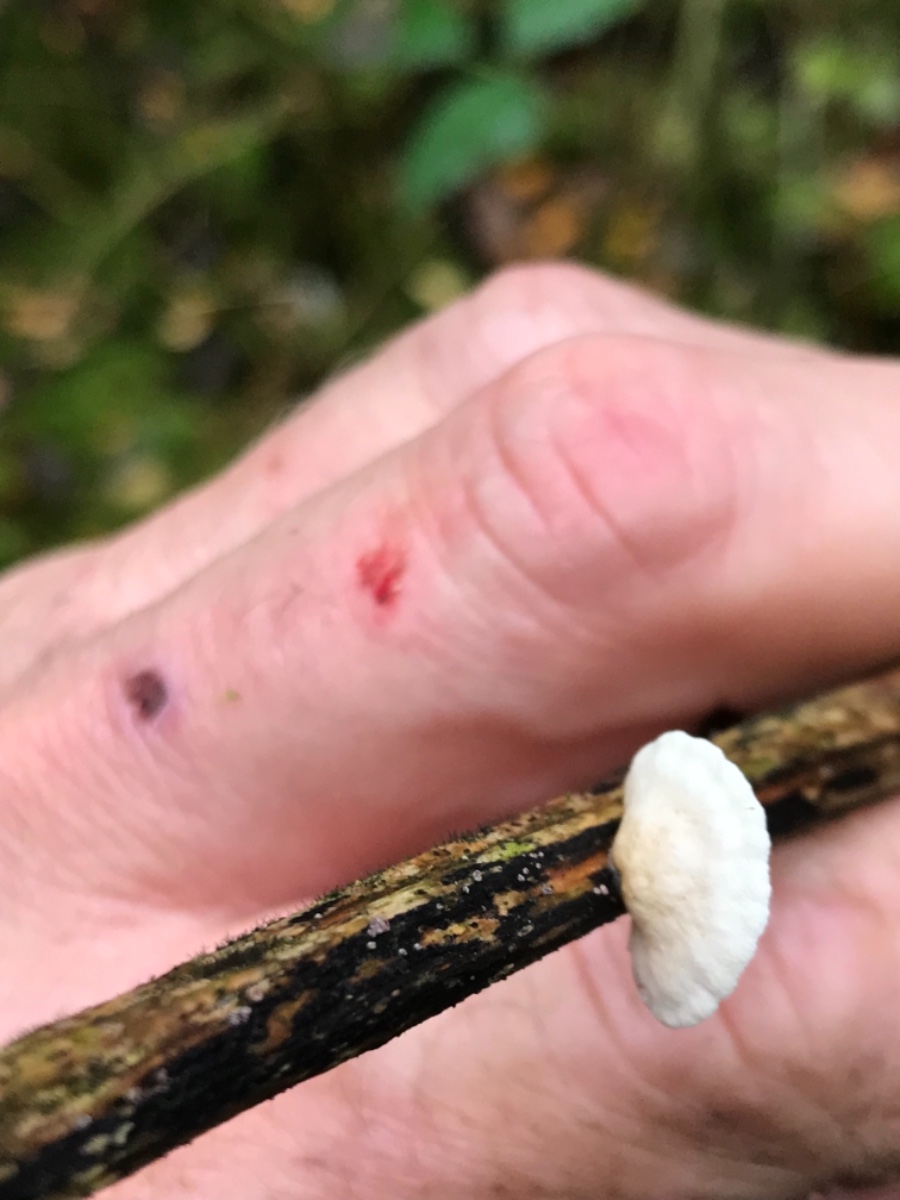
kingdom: Fungi
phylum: Basidiomycota
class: Agaricomycetes
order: Agaricales
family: Crepidotaceae
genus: Crepidotus
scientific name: Crepidotus luteolus
